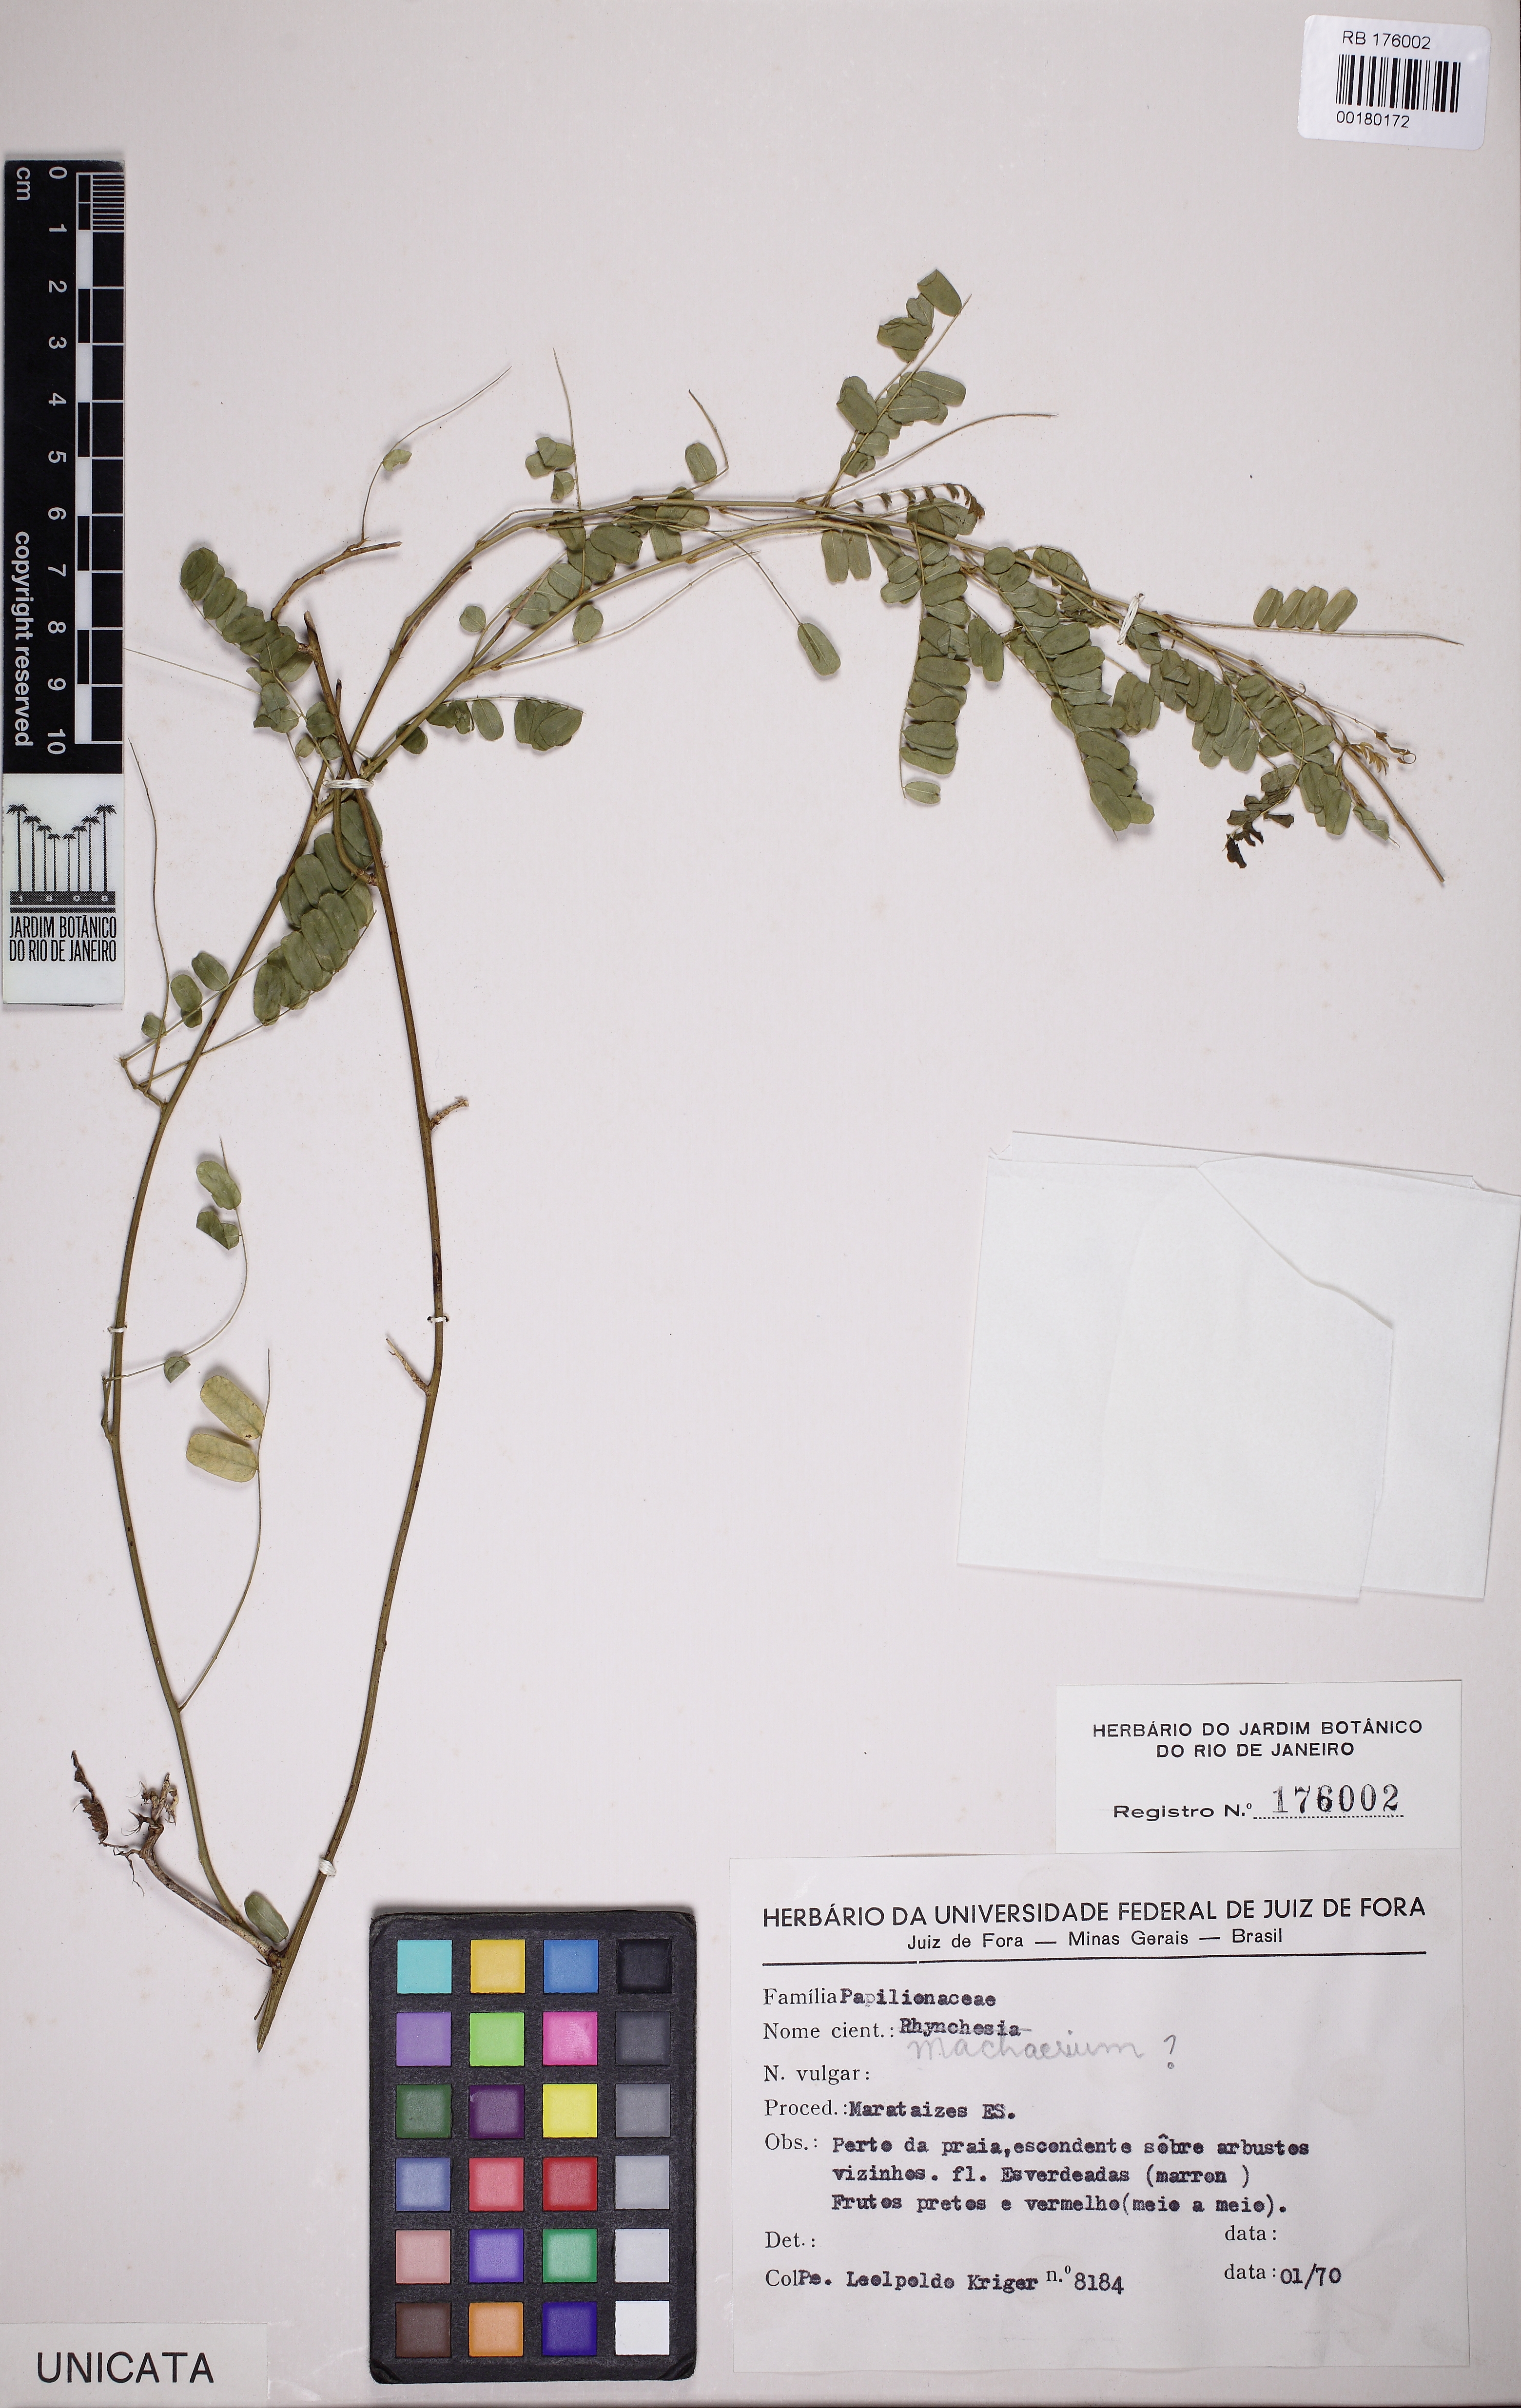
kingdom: Plantae
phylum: Tracheophyta
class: Magnoliopsida
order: Fabales
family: Fabaceae
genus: Machaerium
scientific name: Machaerium
